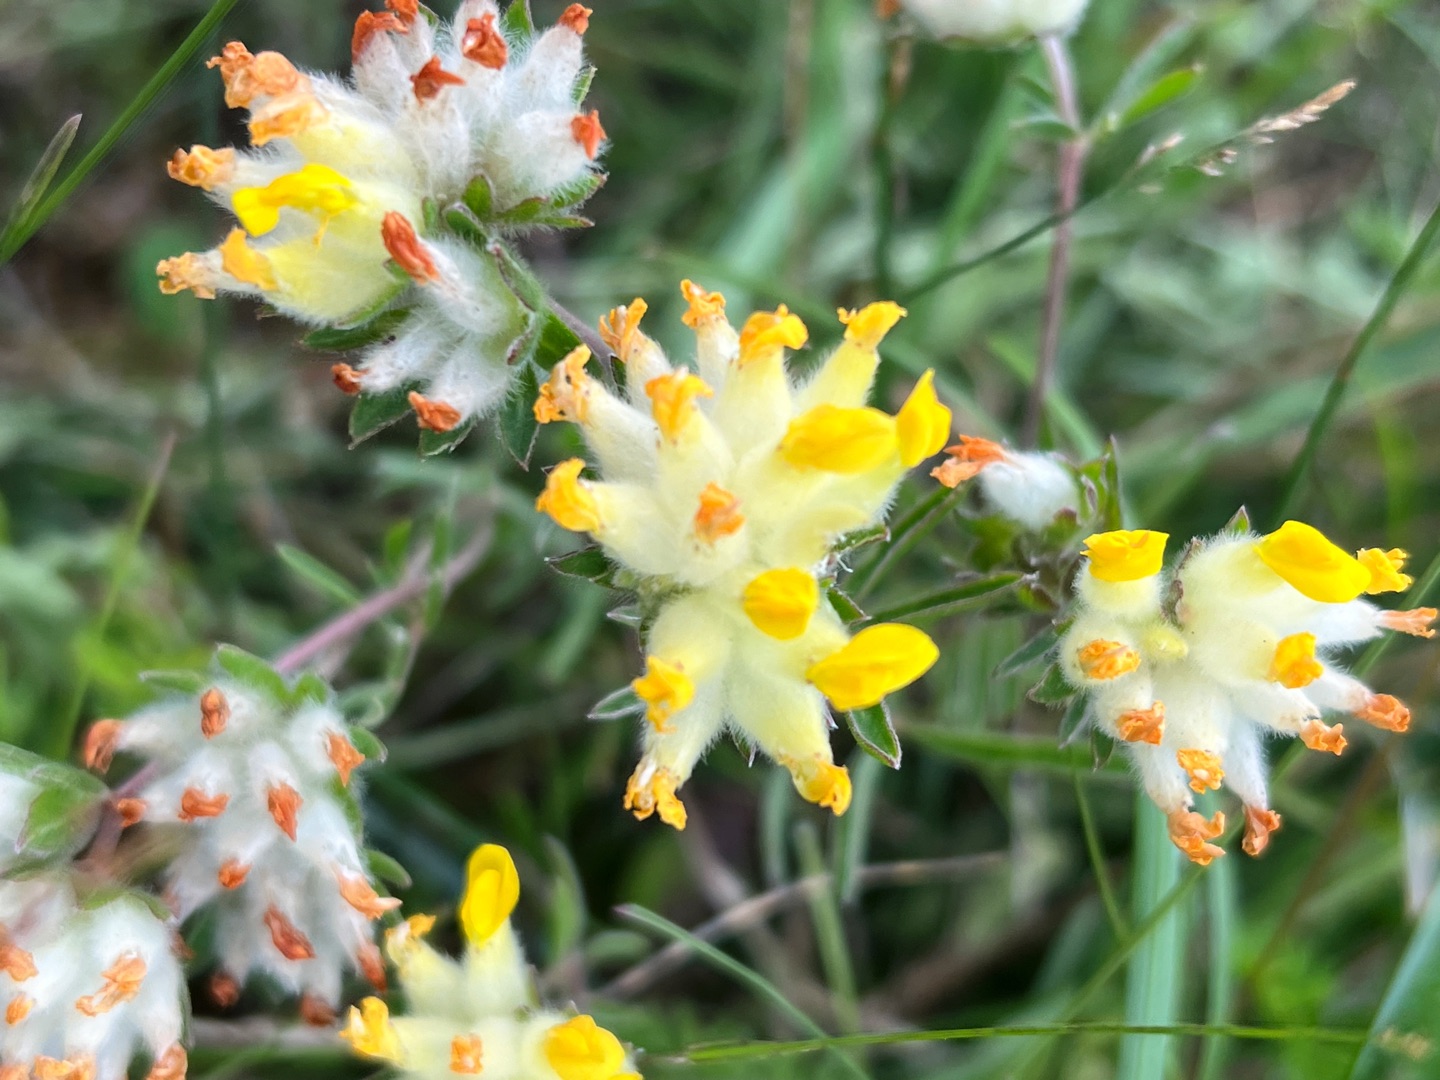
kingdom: Plantae
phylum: Tracheophyta
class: Magnoliopsida
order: Fabales
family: Fabaceae
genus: Anthyllis
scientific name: Anthyllis vulneraria
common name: Rundbælg
